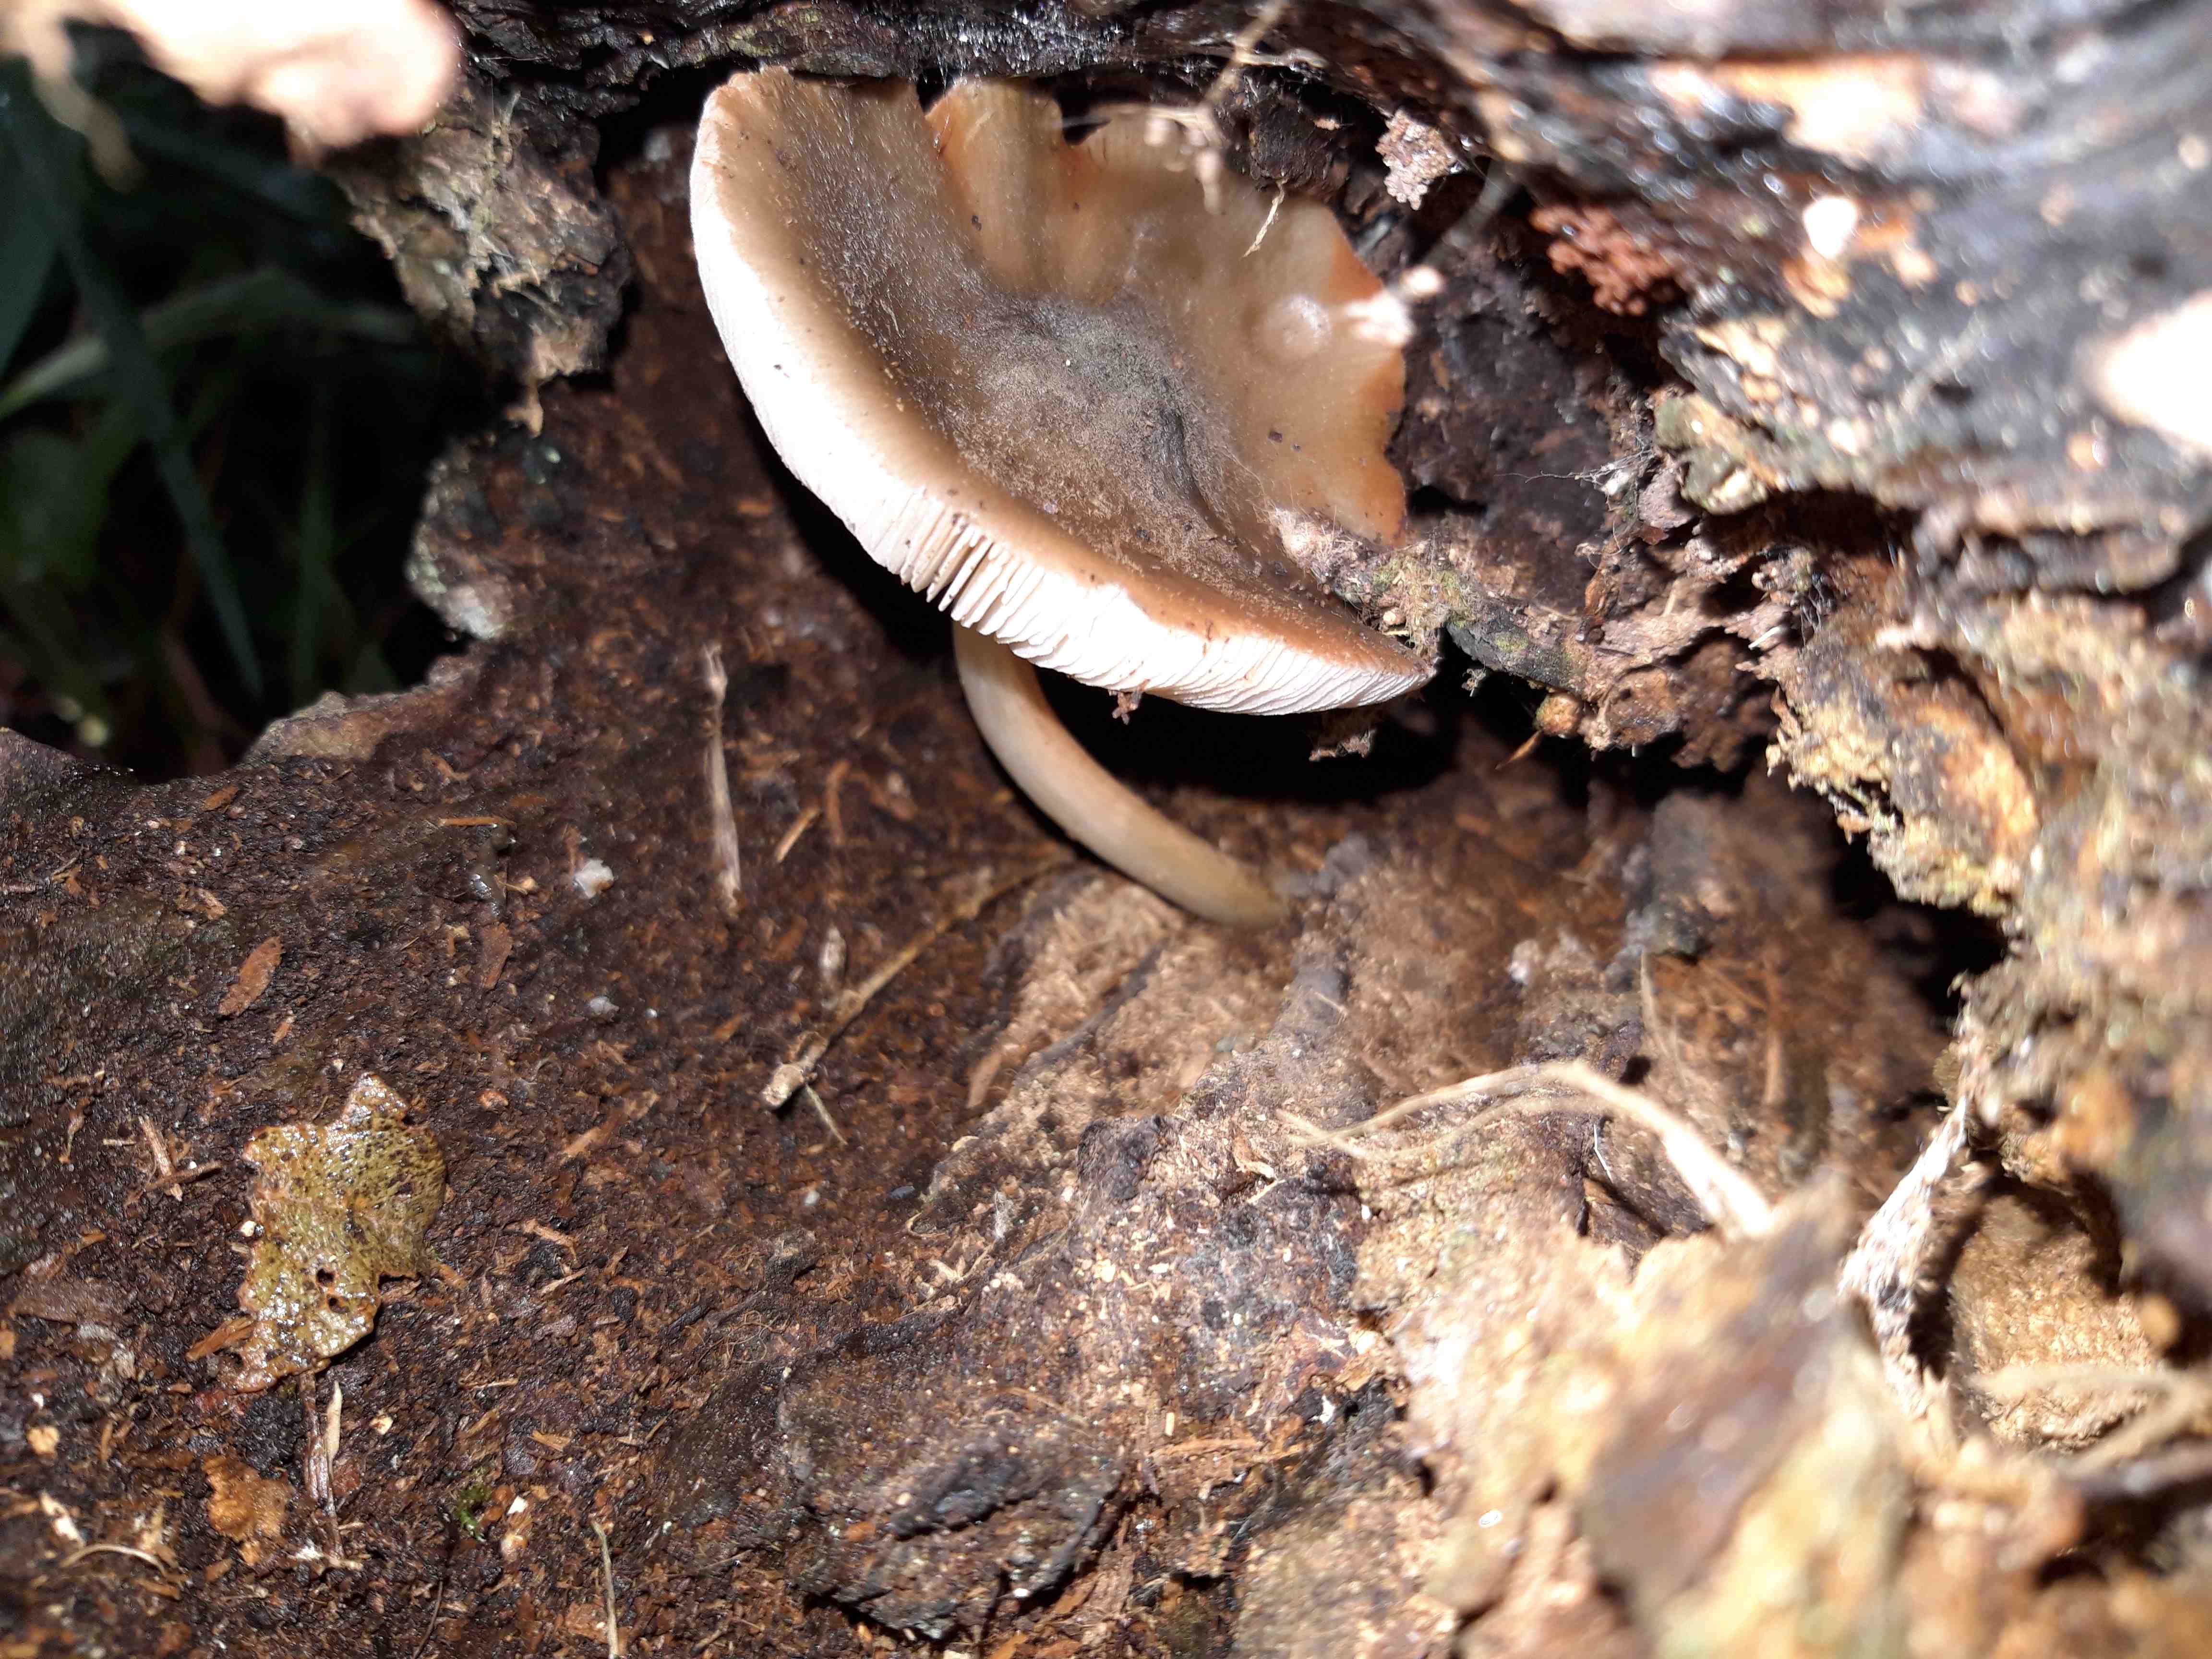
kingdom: Fungi
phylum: Basidiomycota
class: Agaricomycetes
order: Agaricales
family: Pluteaceae
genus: Pluteus
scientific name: Pluteus
